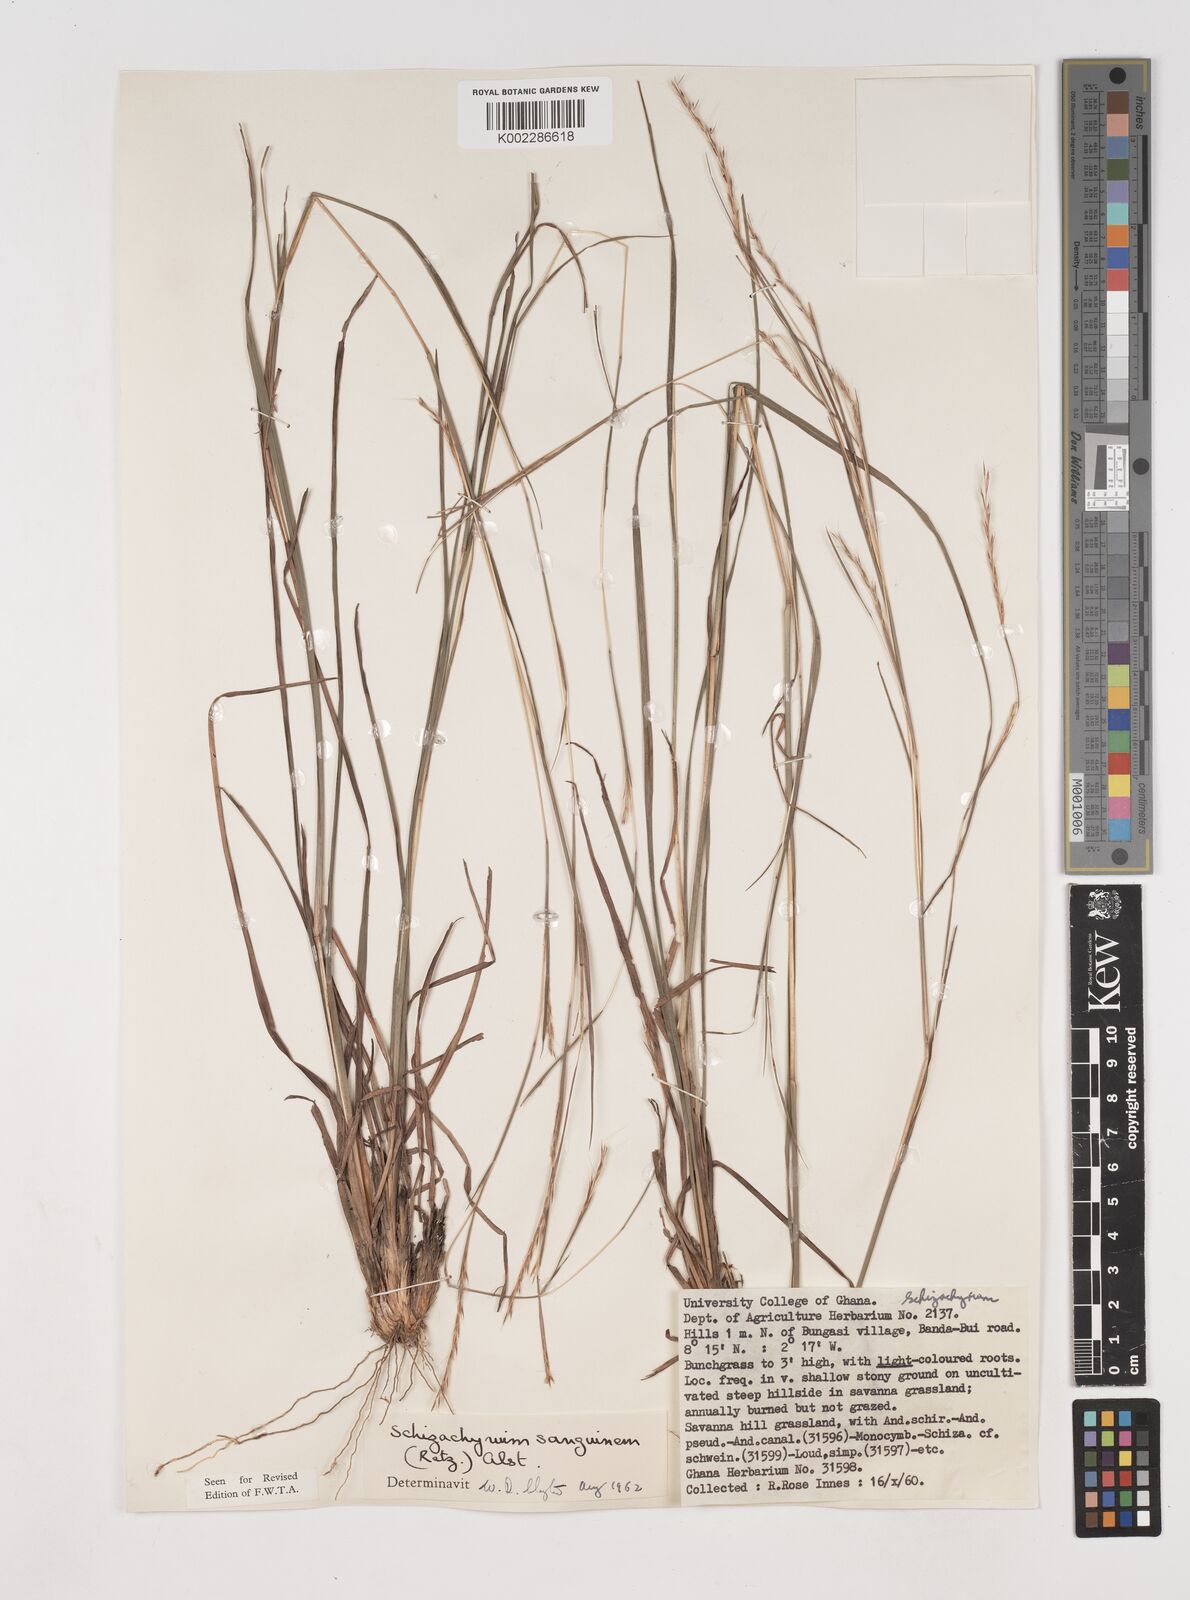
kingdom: Plantae
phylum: Tracheophyta
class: Liliopsida
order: Poales
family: Poaceae
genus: Schizachyrium
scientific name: Schizachyrium sanguineum
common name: Crimson bluestem
